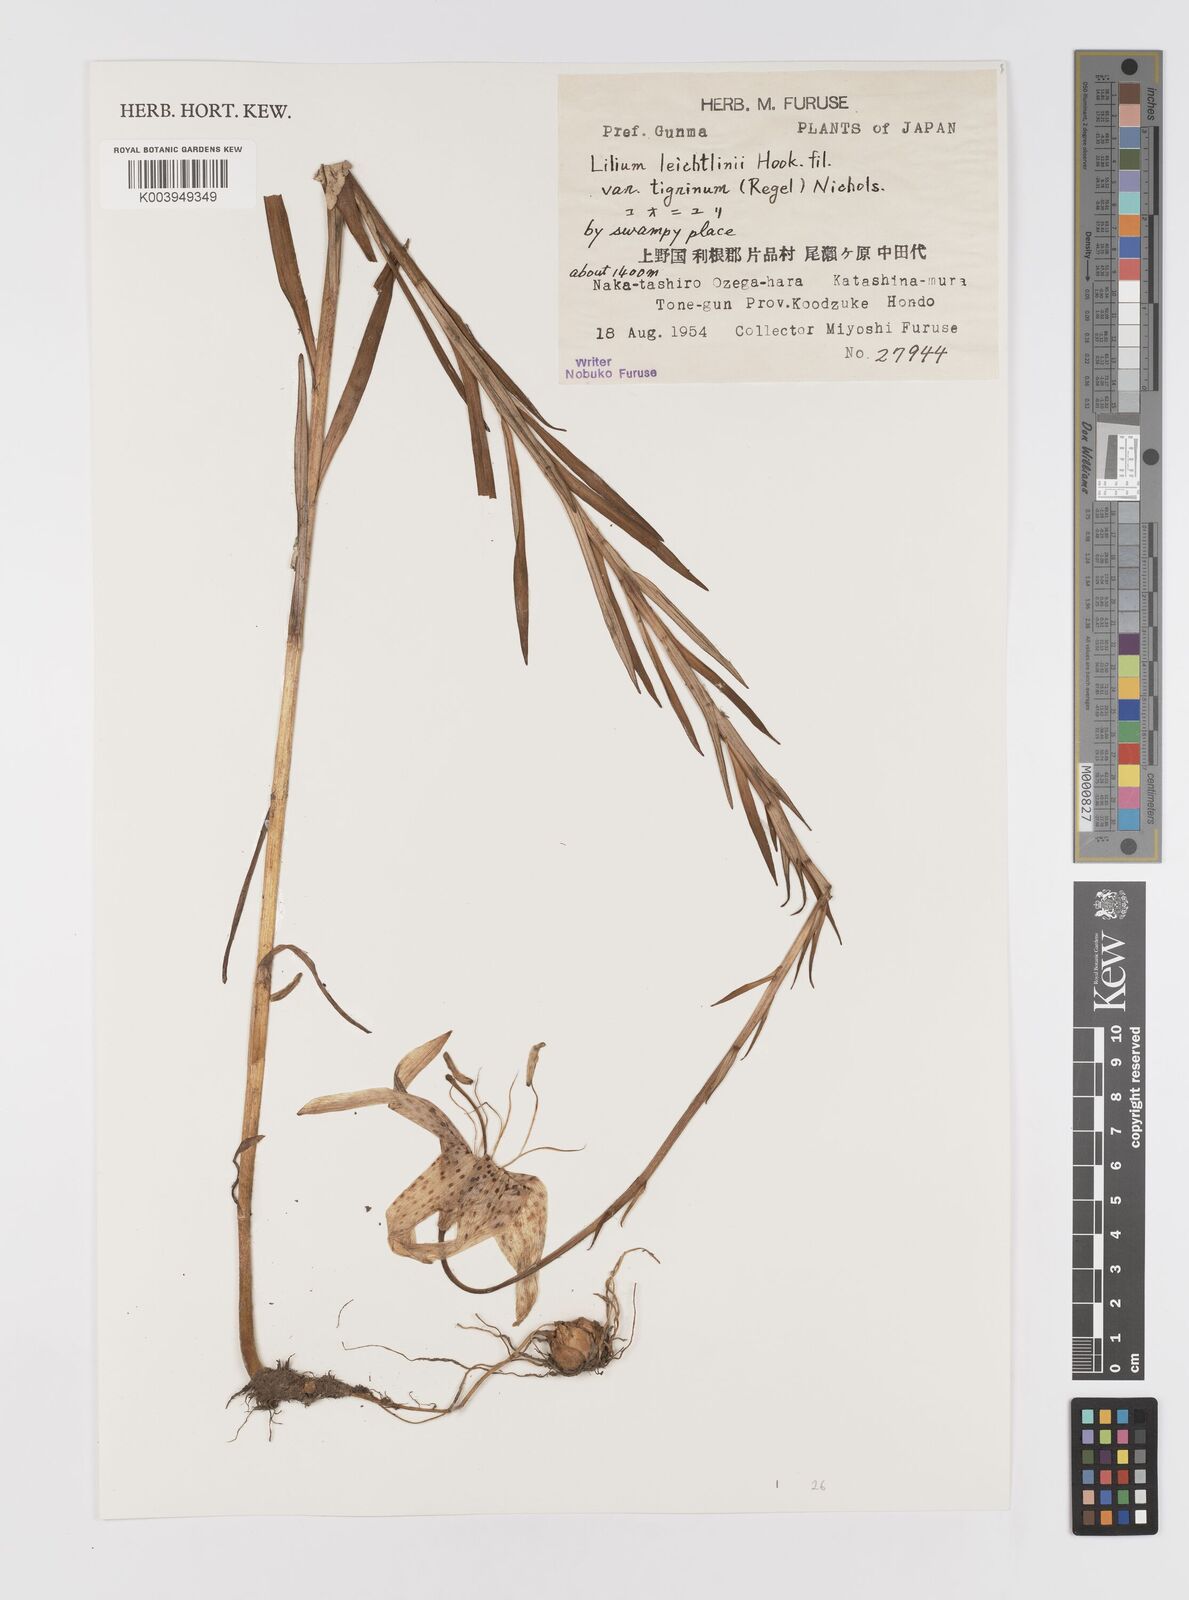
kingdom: Plantae
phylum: Tracheophyta
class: Liliopsida
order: Liliales
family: Liliaceae
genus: Lilium
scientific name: Lilium leichtlinii
